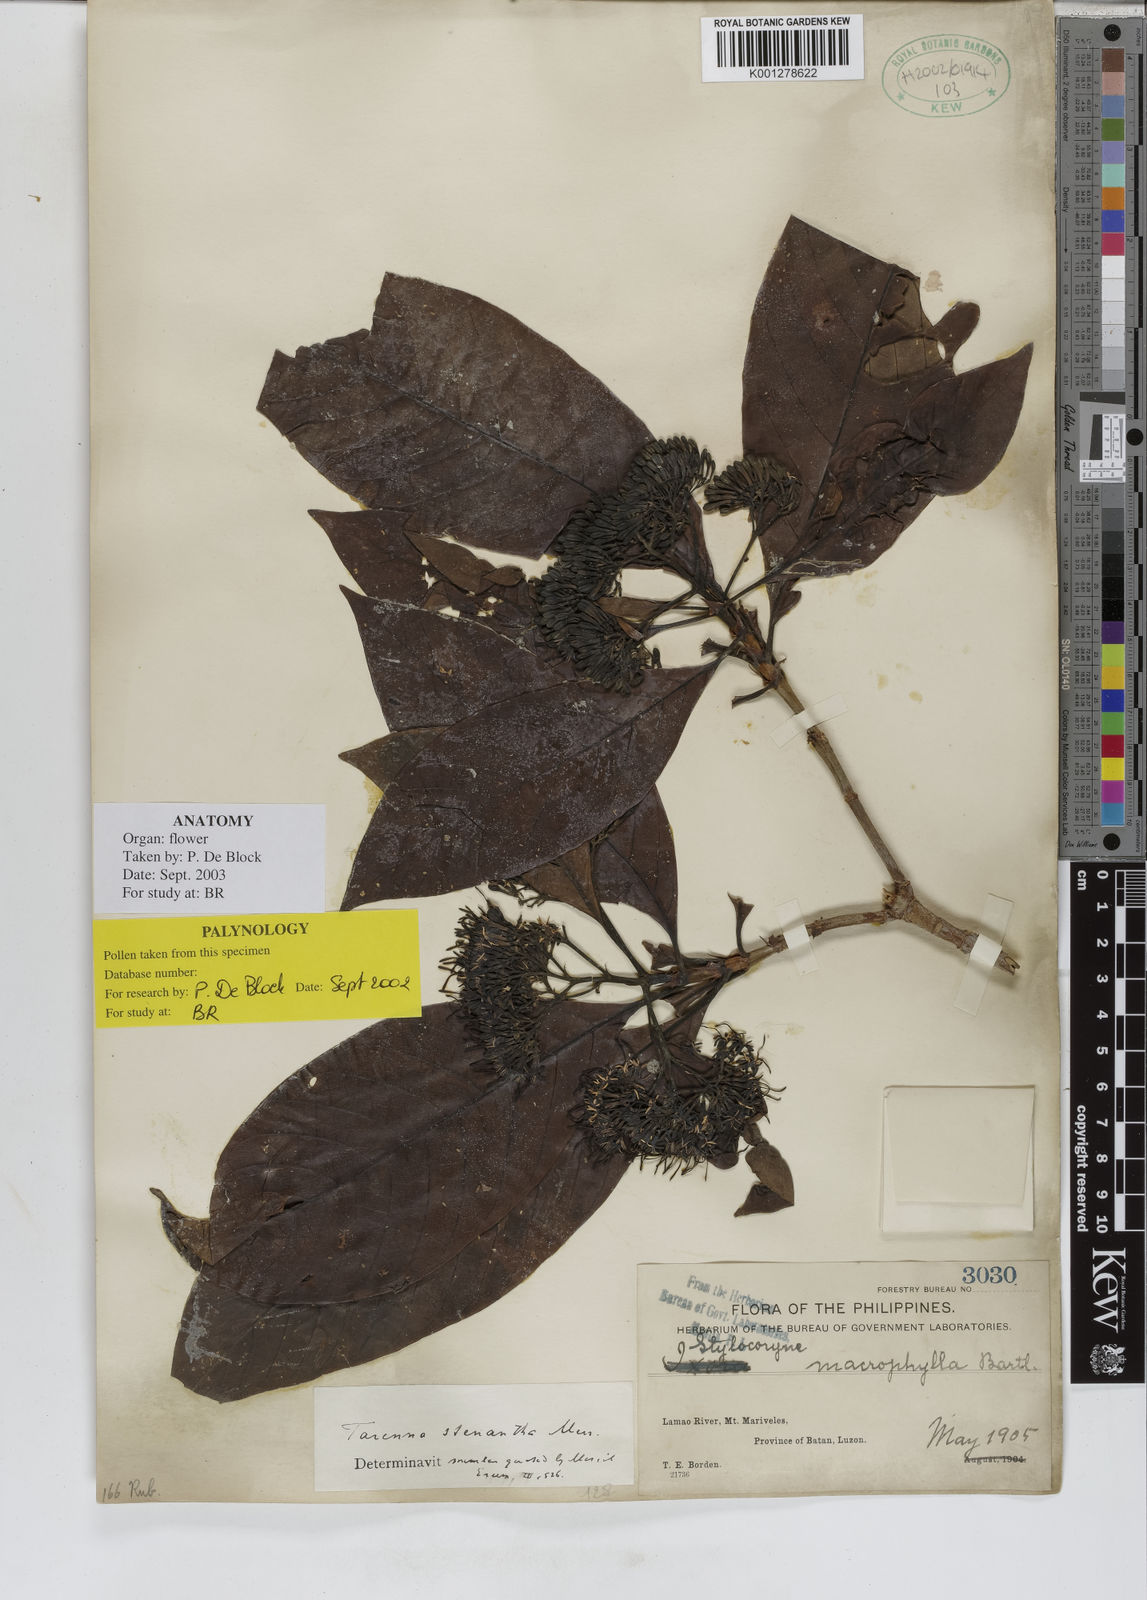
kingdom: Plantae
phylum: Tracheophyta
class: Magnoliopsida
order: Gentianales
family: Rubiaceae
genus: Tarenna
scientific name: Tarenna stenantha
